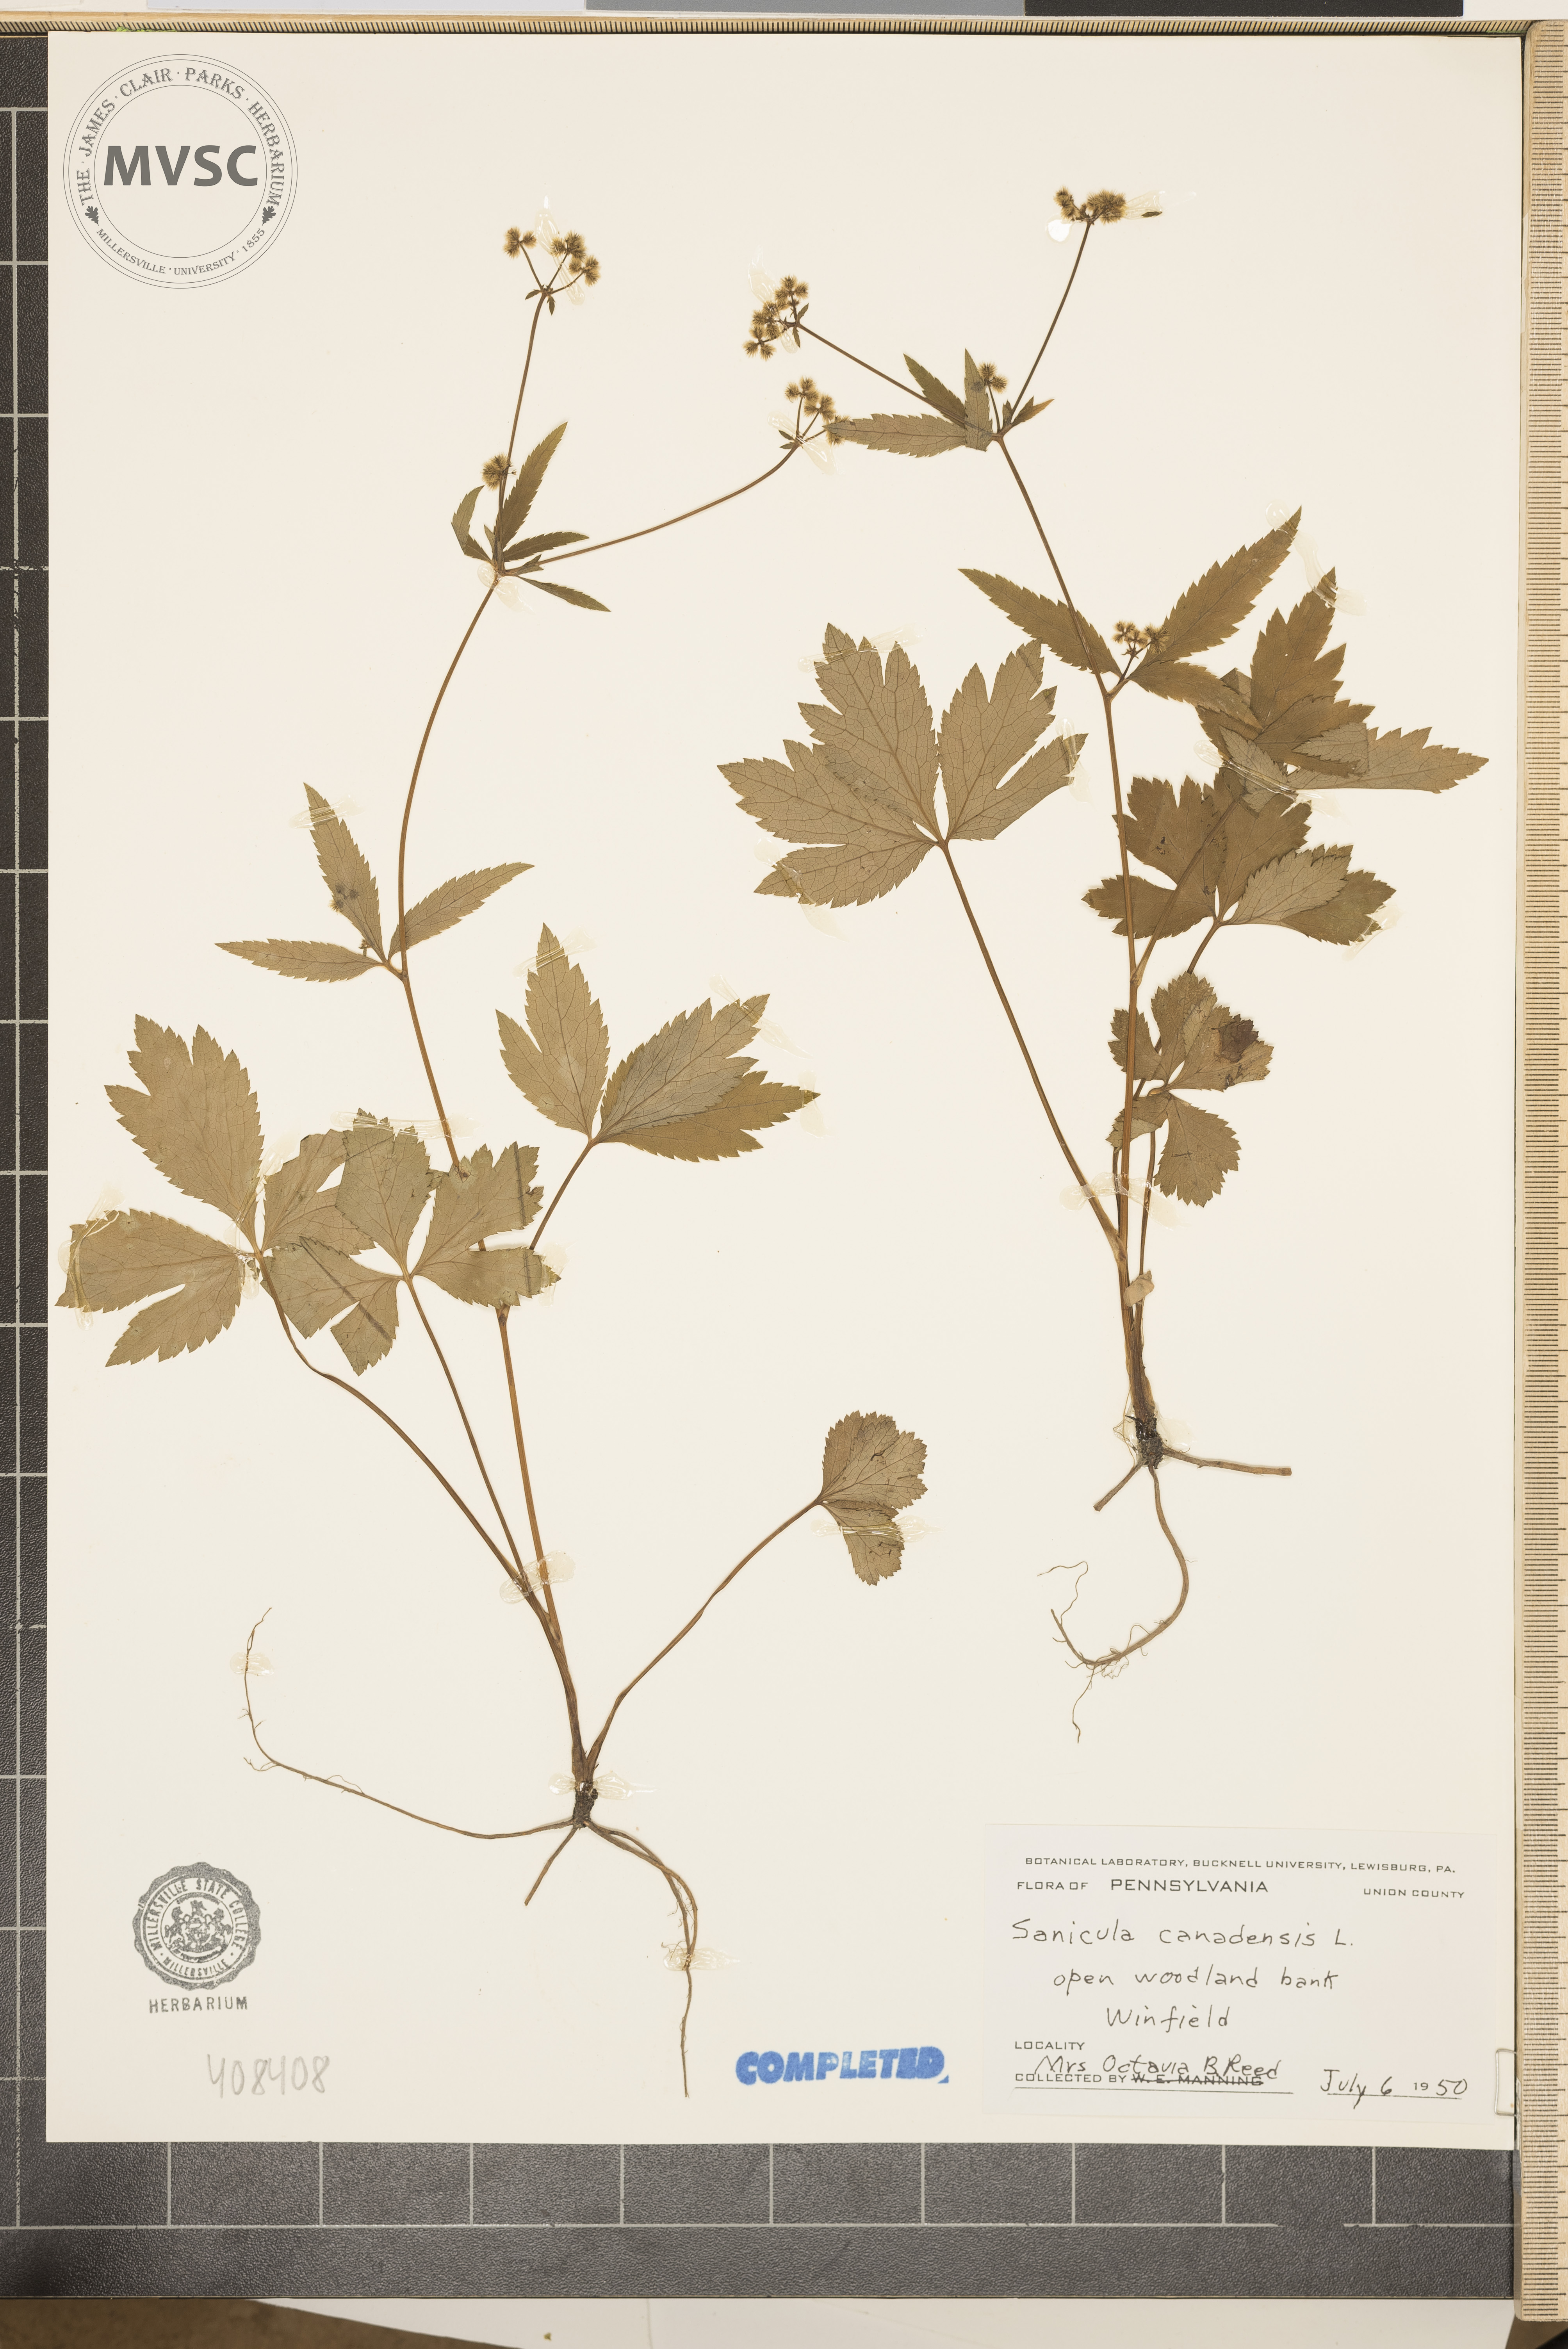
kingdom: Plantae
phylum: Tracheophyta
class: Magnoliopsida
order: Apiales
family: Apiaceae
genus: Sanicula
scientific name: Sanicula canadensis
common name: Canada sanicle
